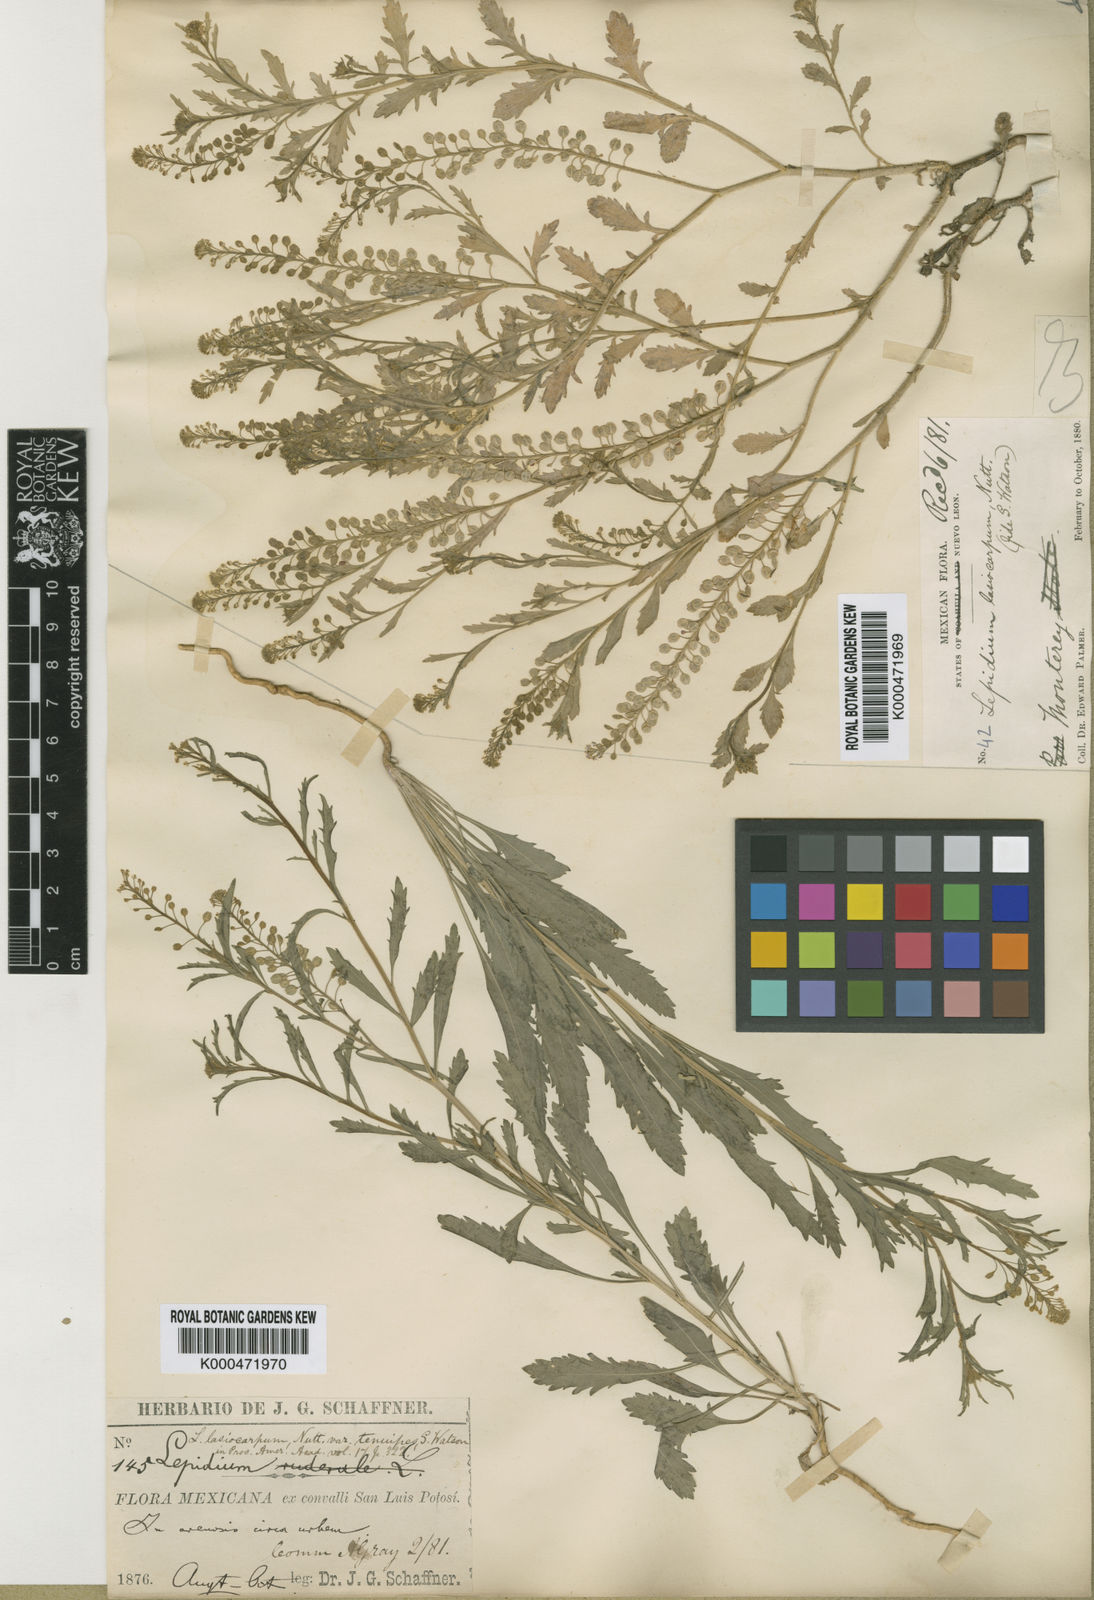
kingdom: Plantae
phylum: Tracheophyta
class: Magnoliopsida
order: Brassicales
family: Brassicaceae
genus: Lepidium
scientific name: Lepidium lasiocarpum
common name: Hairy-pod pepperwort
